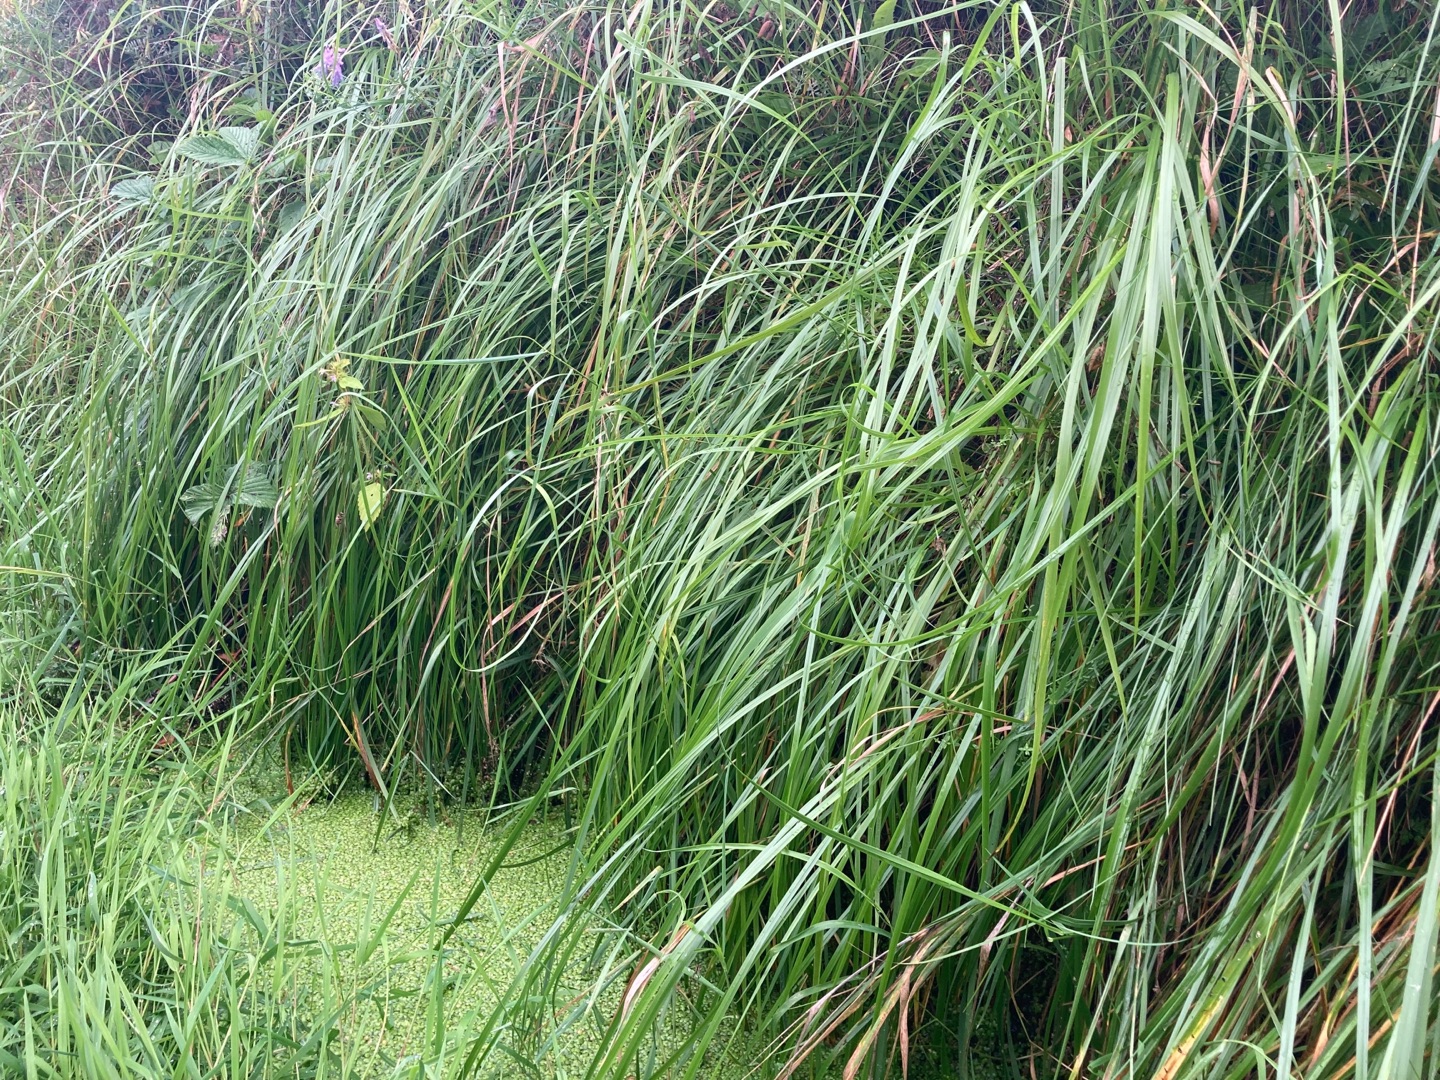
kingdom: Plantae
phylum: Tracheophyta
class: Liliopsida
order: Poales
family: Poaceae
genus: Anthoxanthum
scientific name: Anthoxanthum nitens
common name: Festgræs
